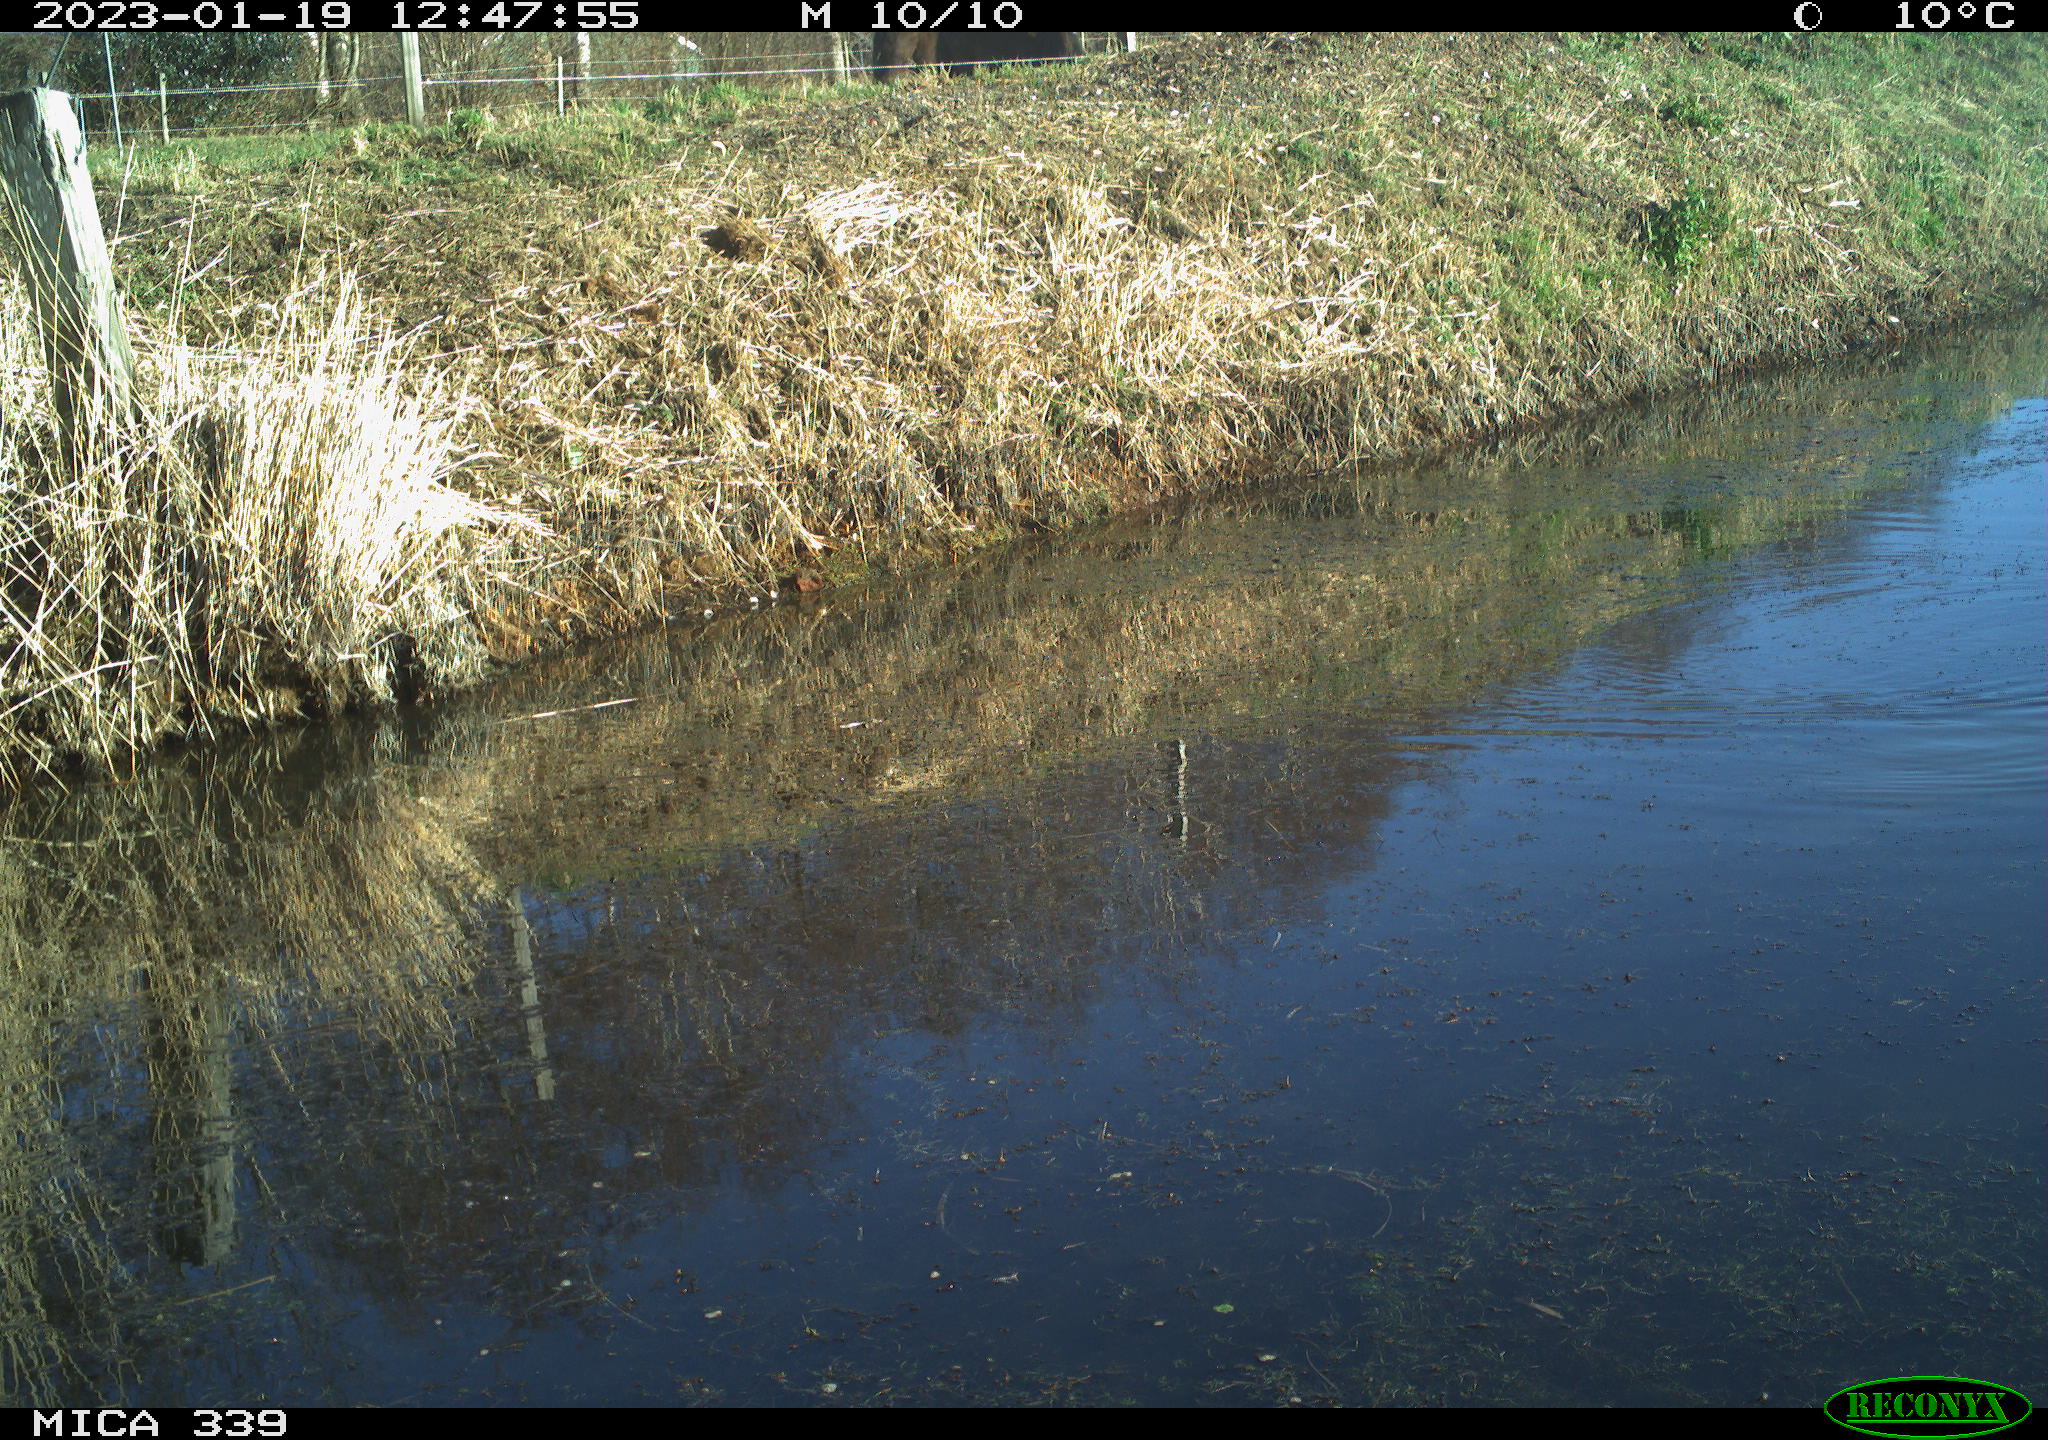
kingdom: Animalia
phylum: Chordata
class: Aves
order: Anseriformes
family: Anatidae
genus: Anas
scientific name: Anas
